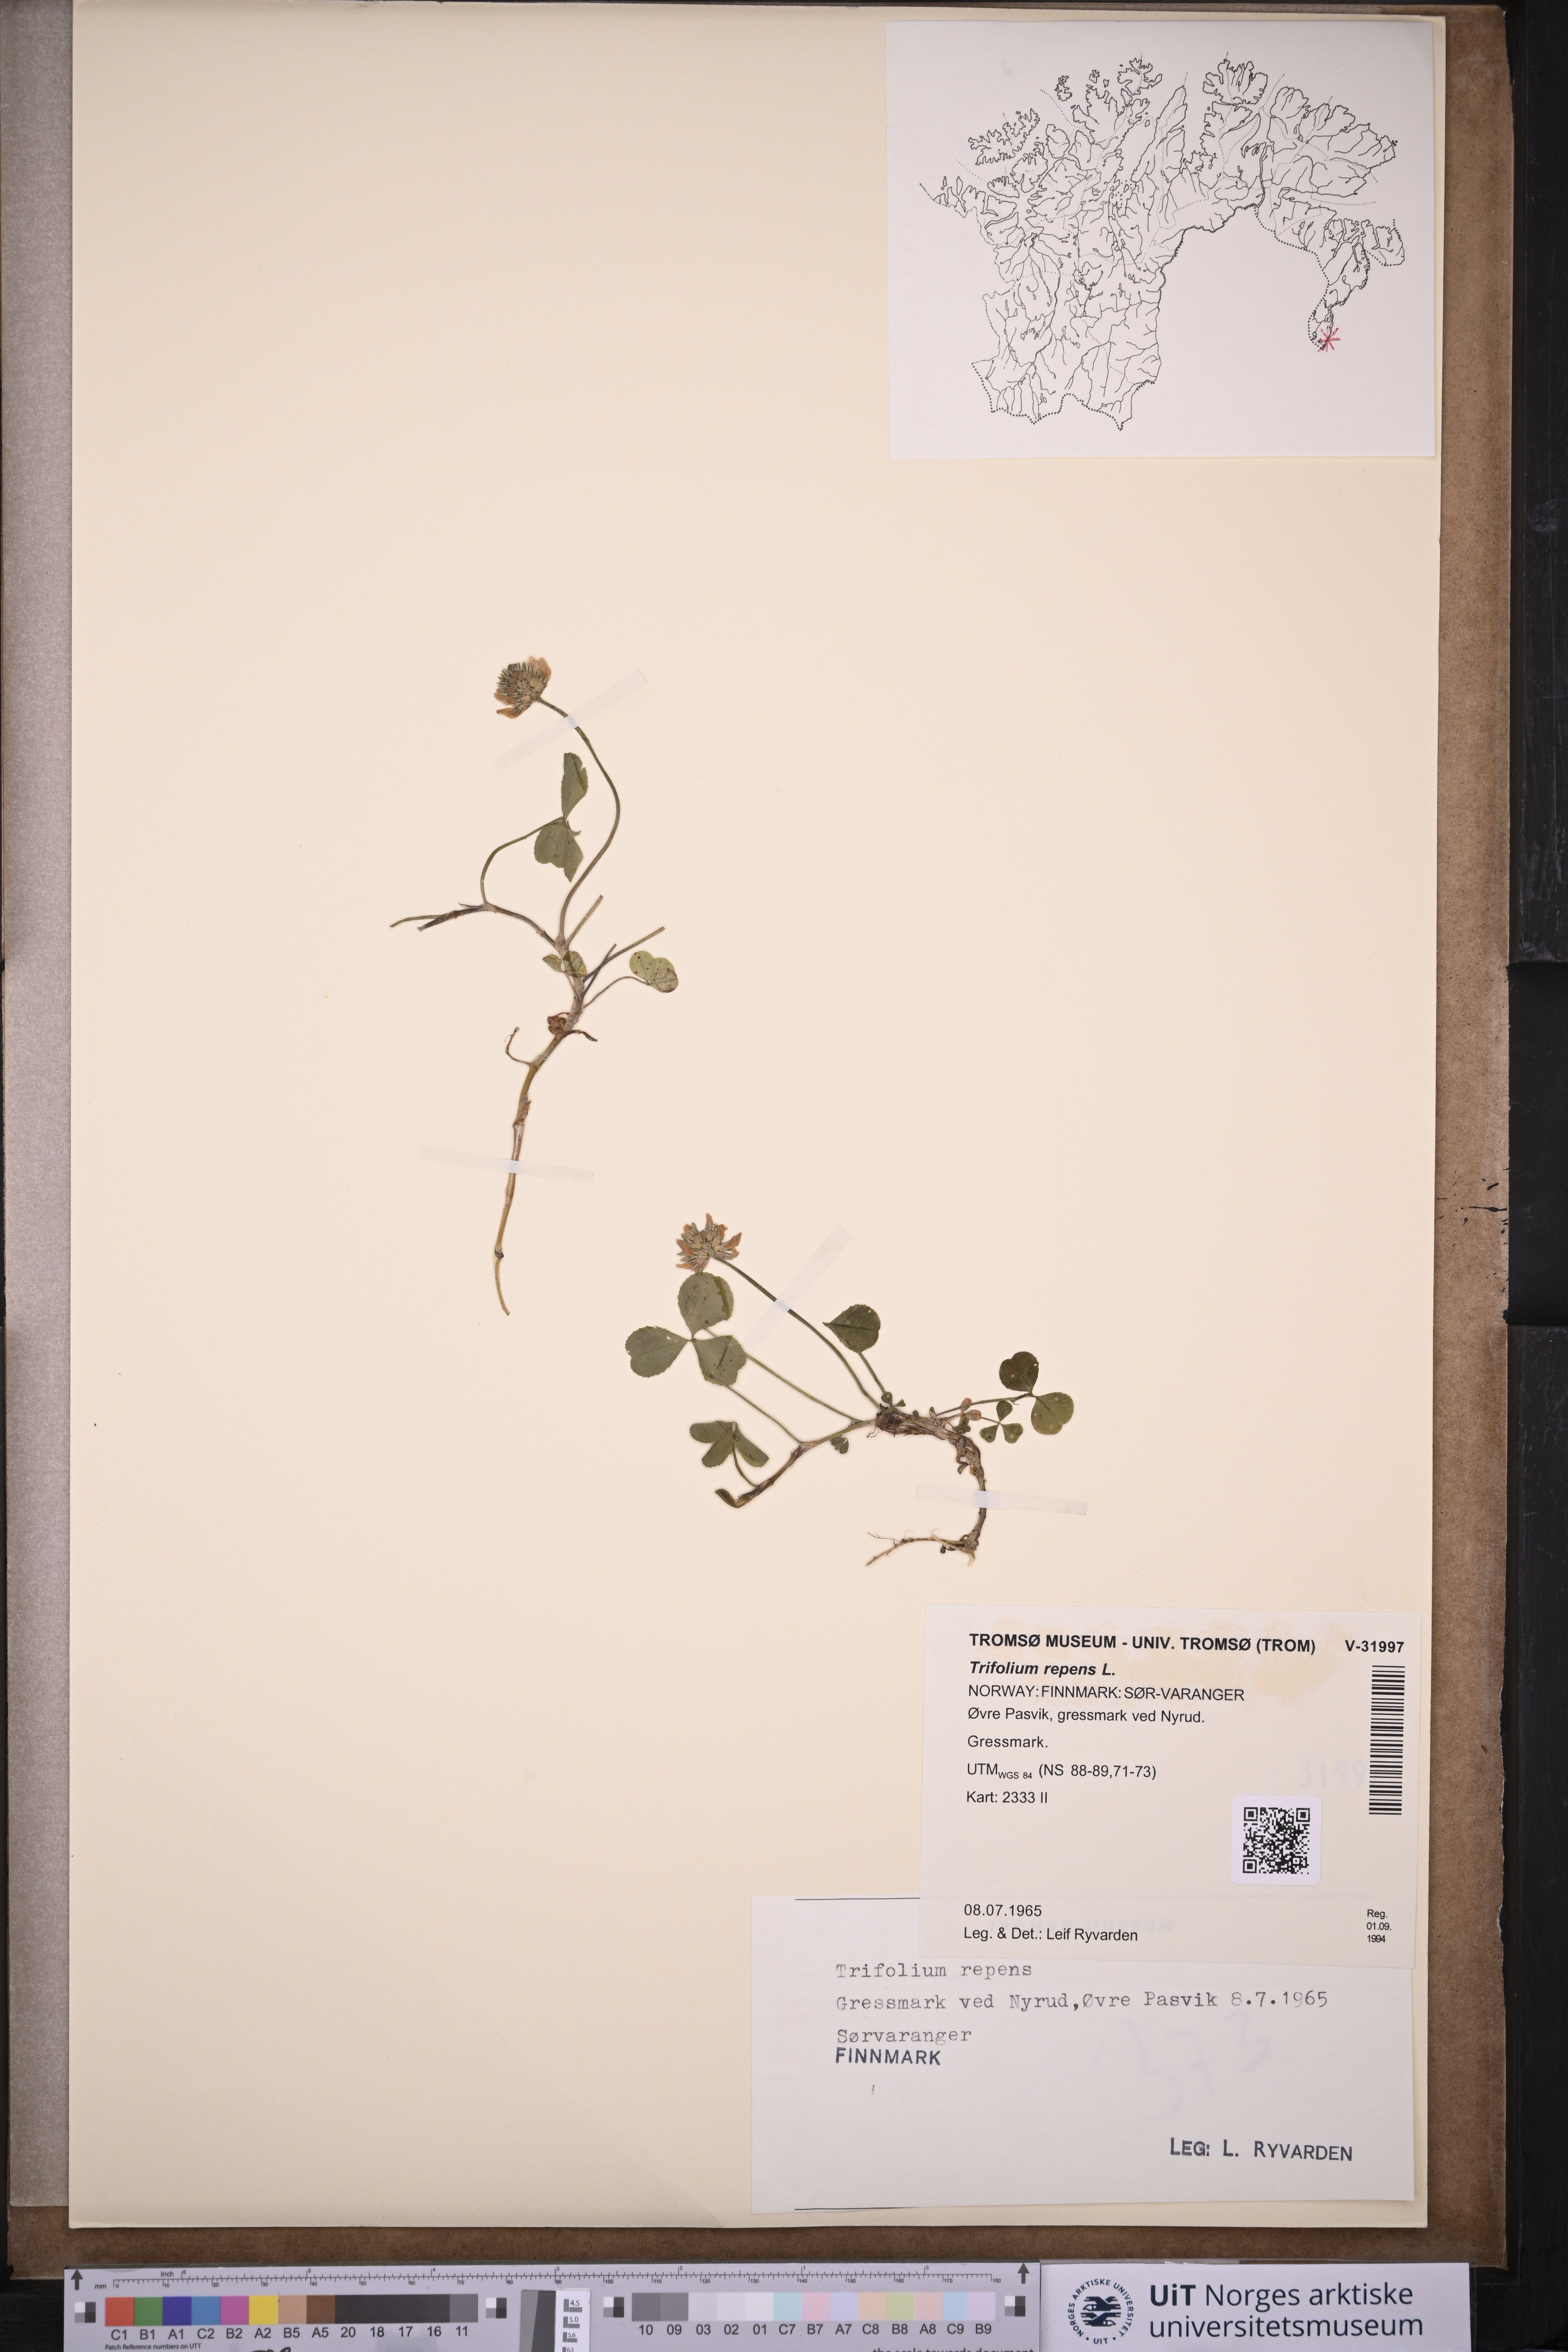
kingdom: Plantae
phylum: Tracheophyta
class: Magnoliopsida
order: Fabales
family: Fabaceae
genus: Trifolium
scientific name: Trifolium repens
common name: White clover
